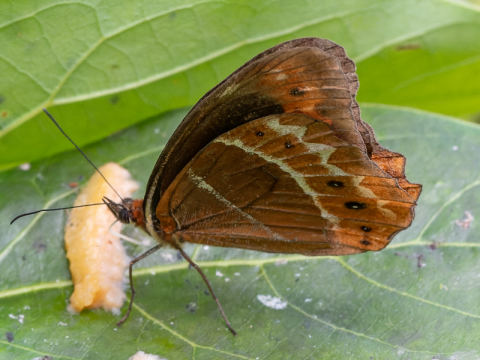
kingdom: Animalia
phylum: Arthropoda
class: Insecta
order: Lepidoptera
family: Nymphalidae
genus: Oxeoschistus
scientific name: Oxeoschistus puerta
